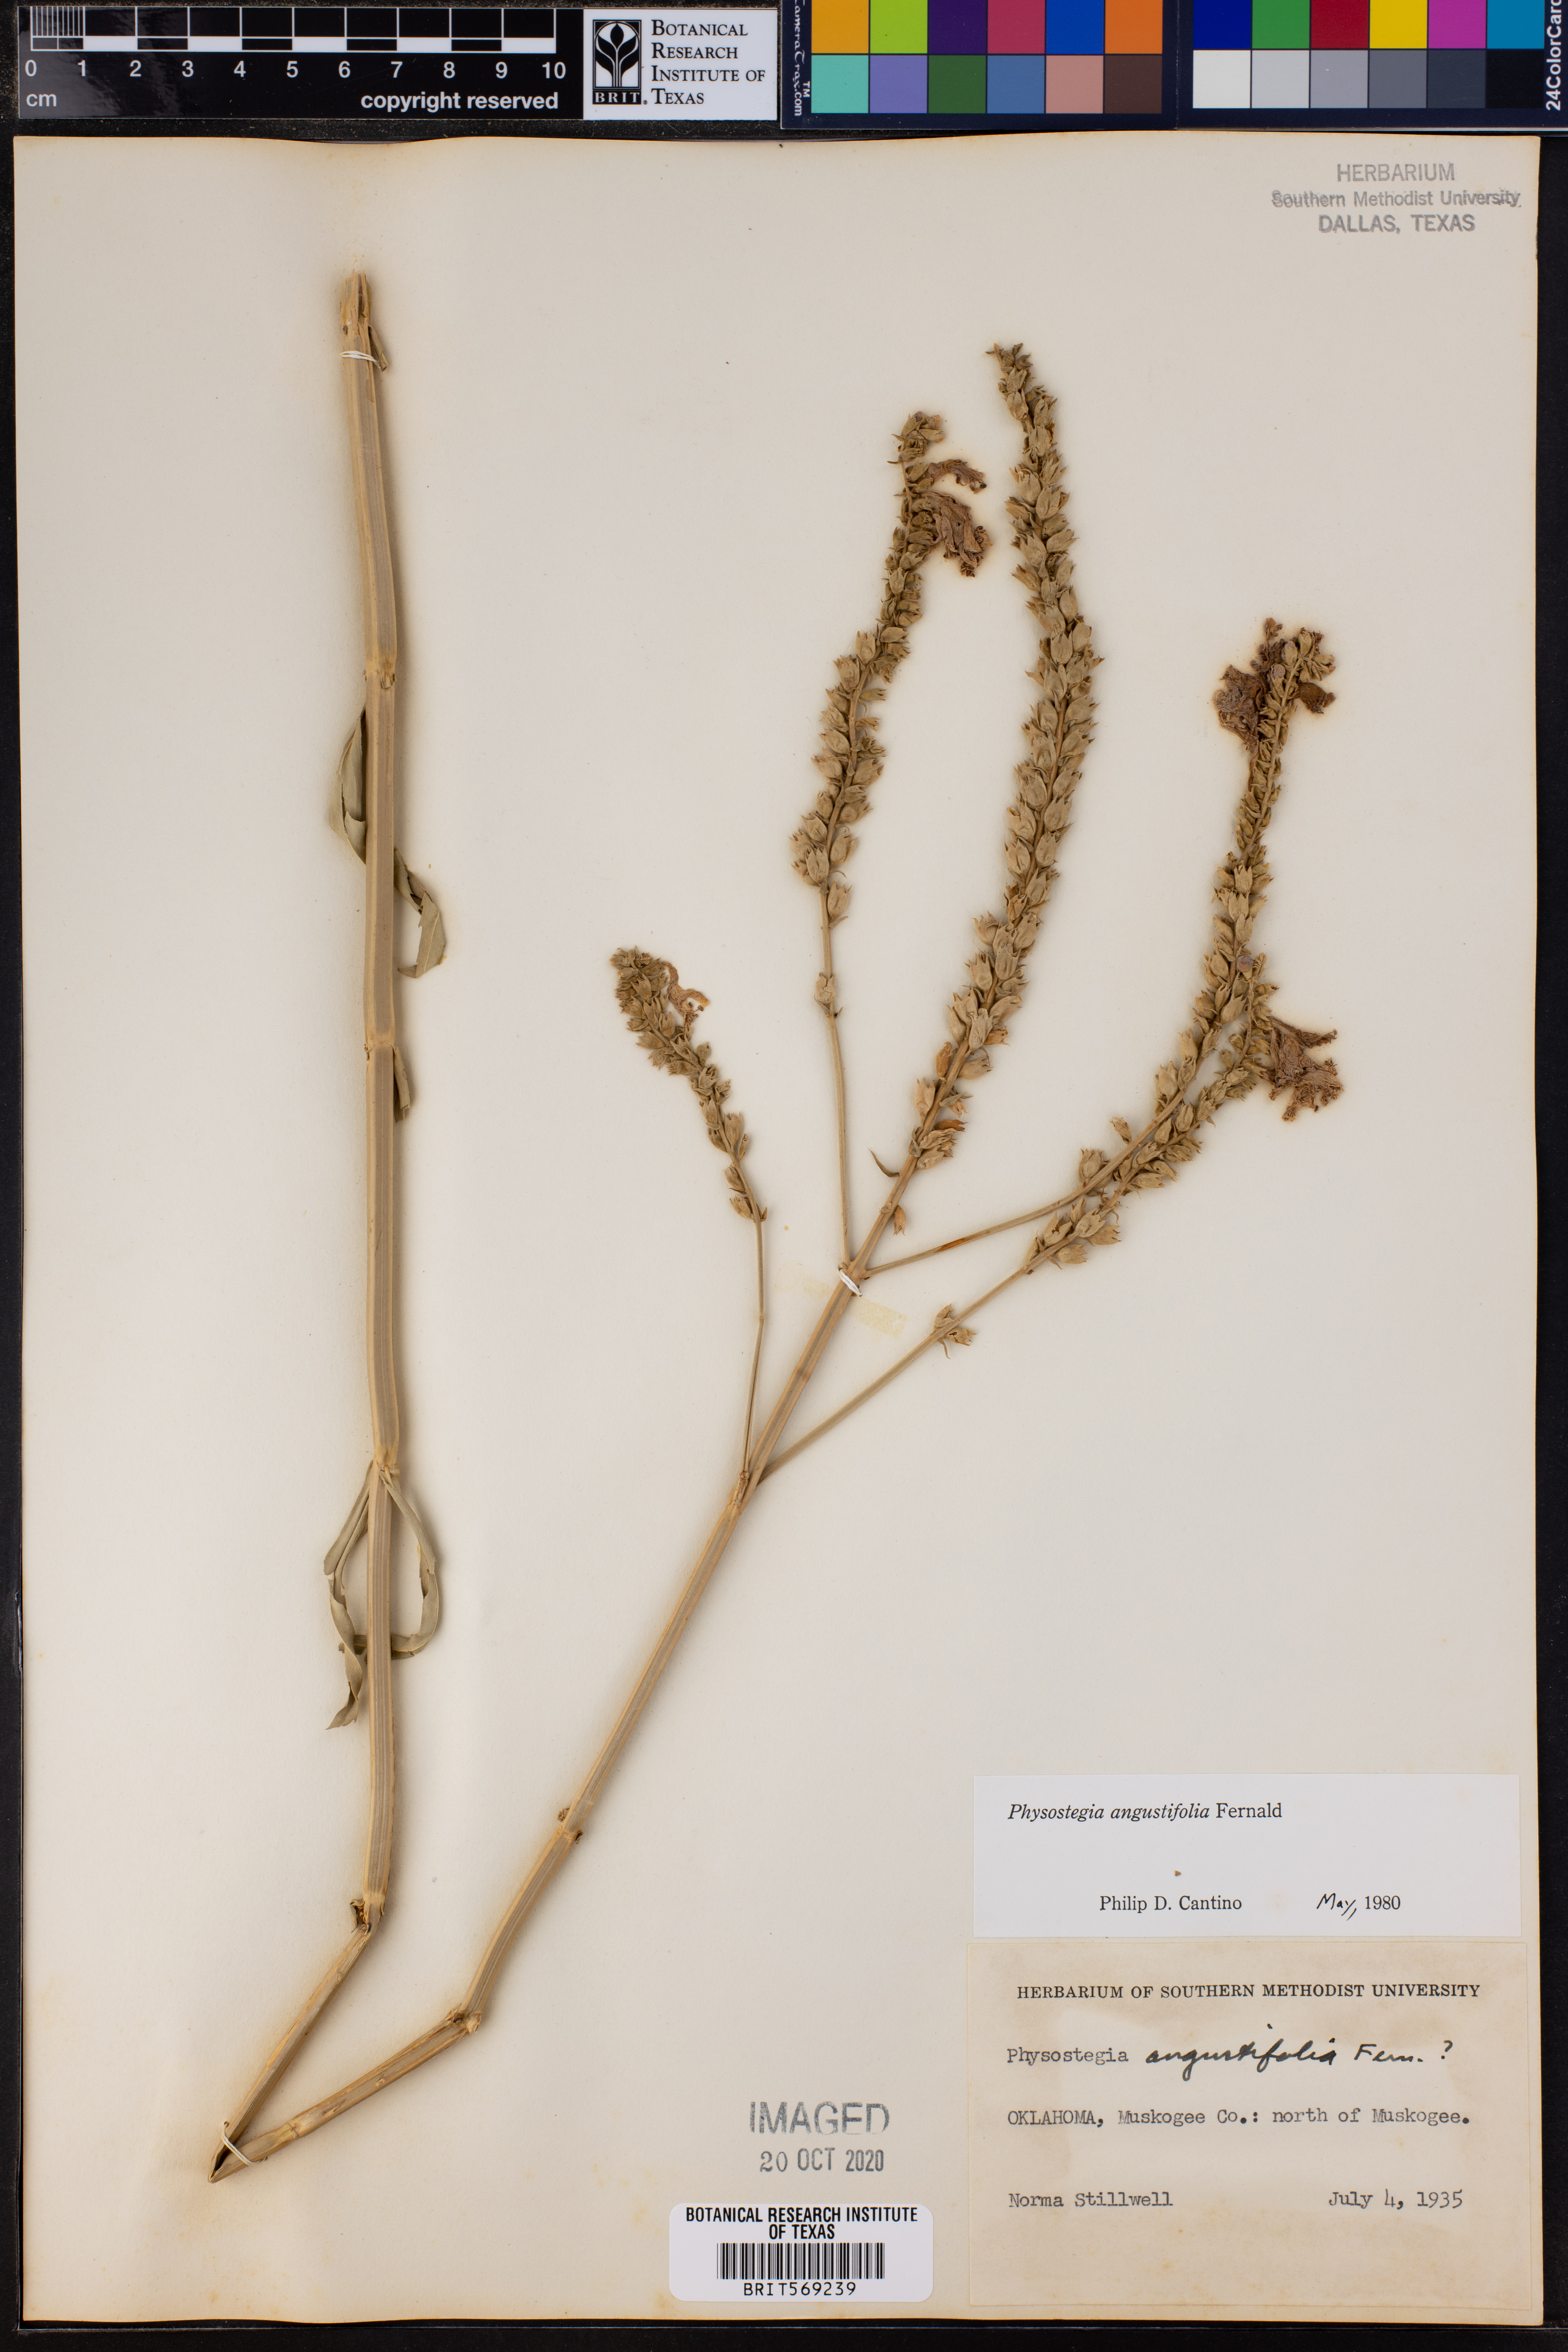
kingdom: Plantae
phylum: Tracheophyta
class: Magnoliopsida
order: Lamiales
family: Lamiaceae
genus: Physostegia
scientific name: Physostegia angustifolia
